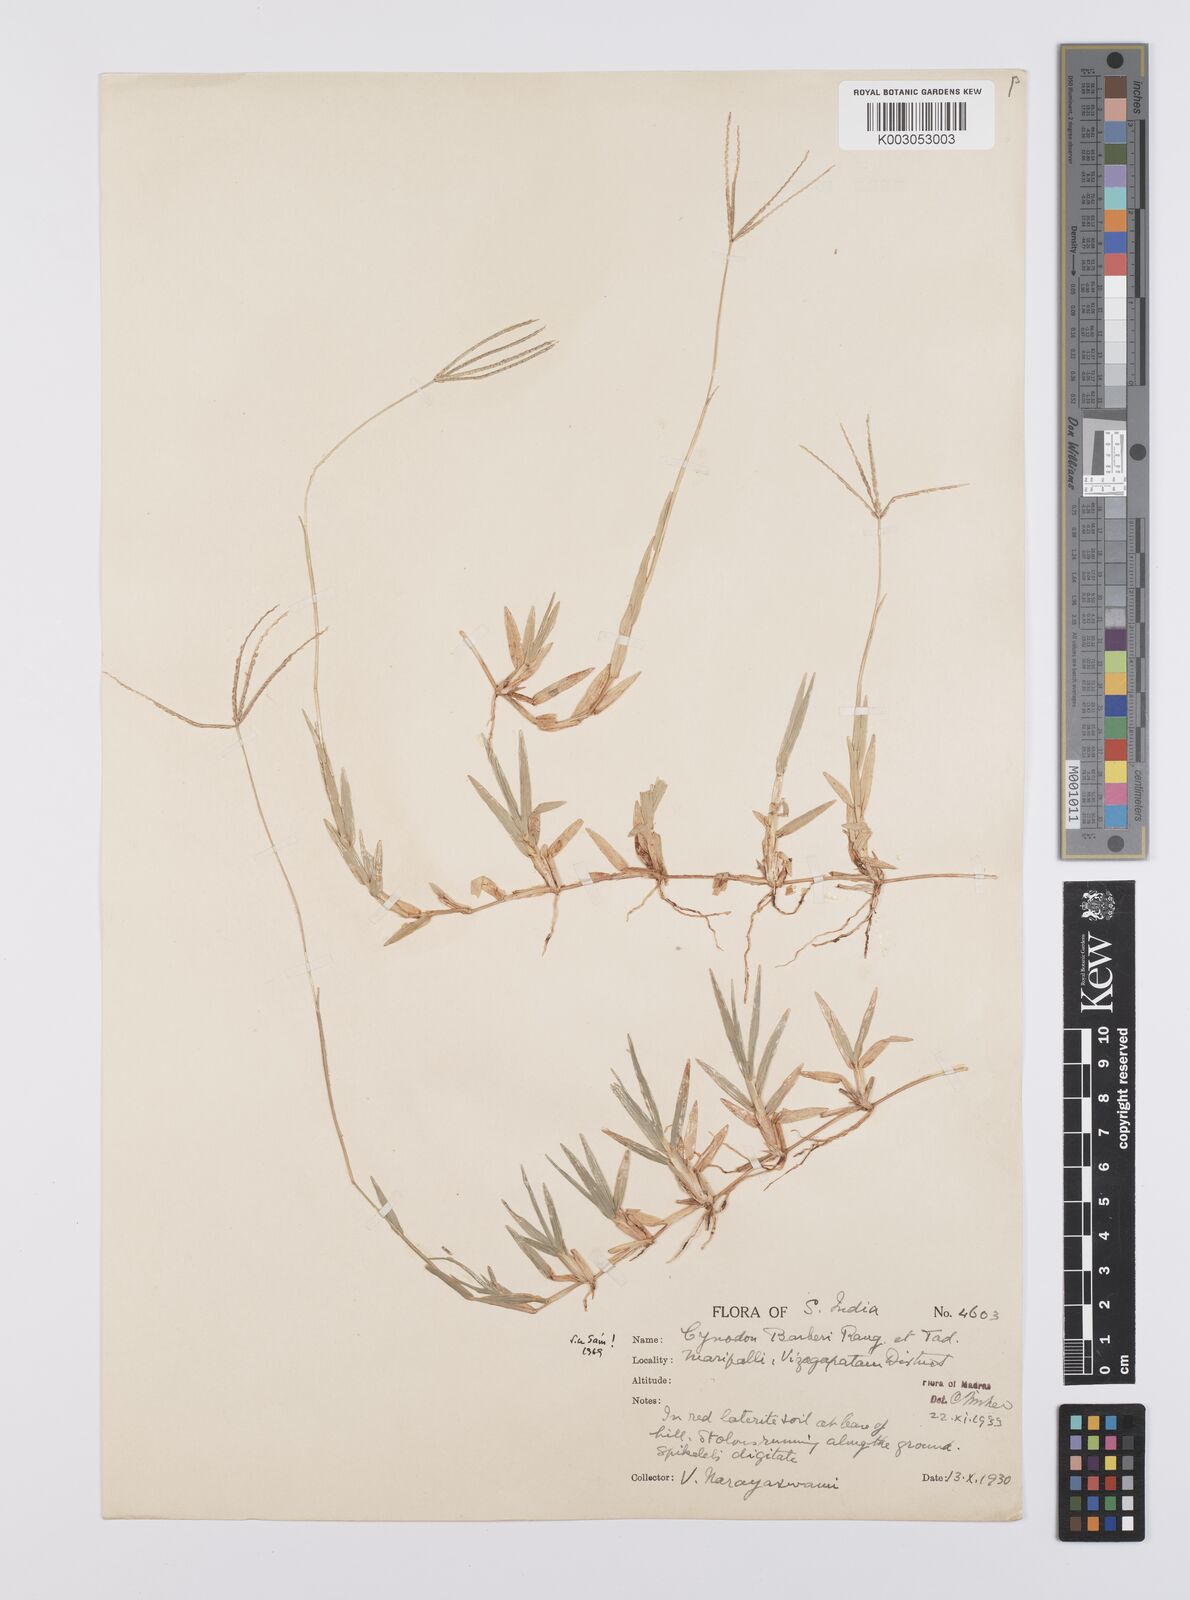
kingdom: Plantae
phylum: Tracheophyta
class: Liliopsida
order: Poales
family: Poaceae
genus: Cynodon
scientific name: Cynodon barberi
